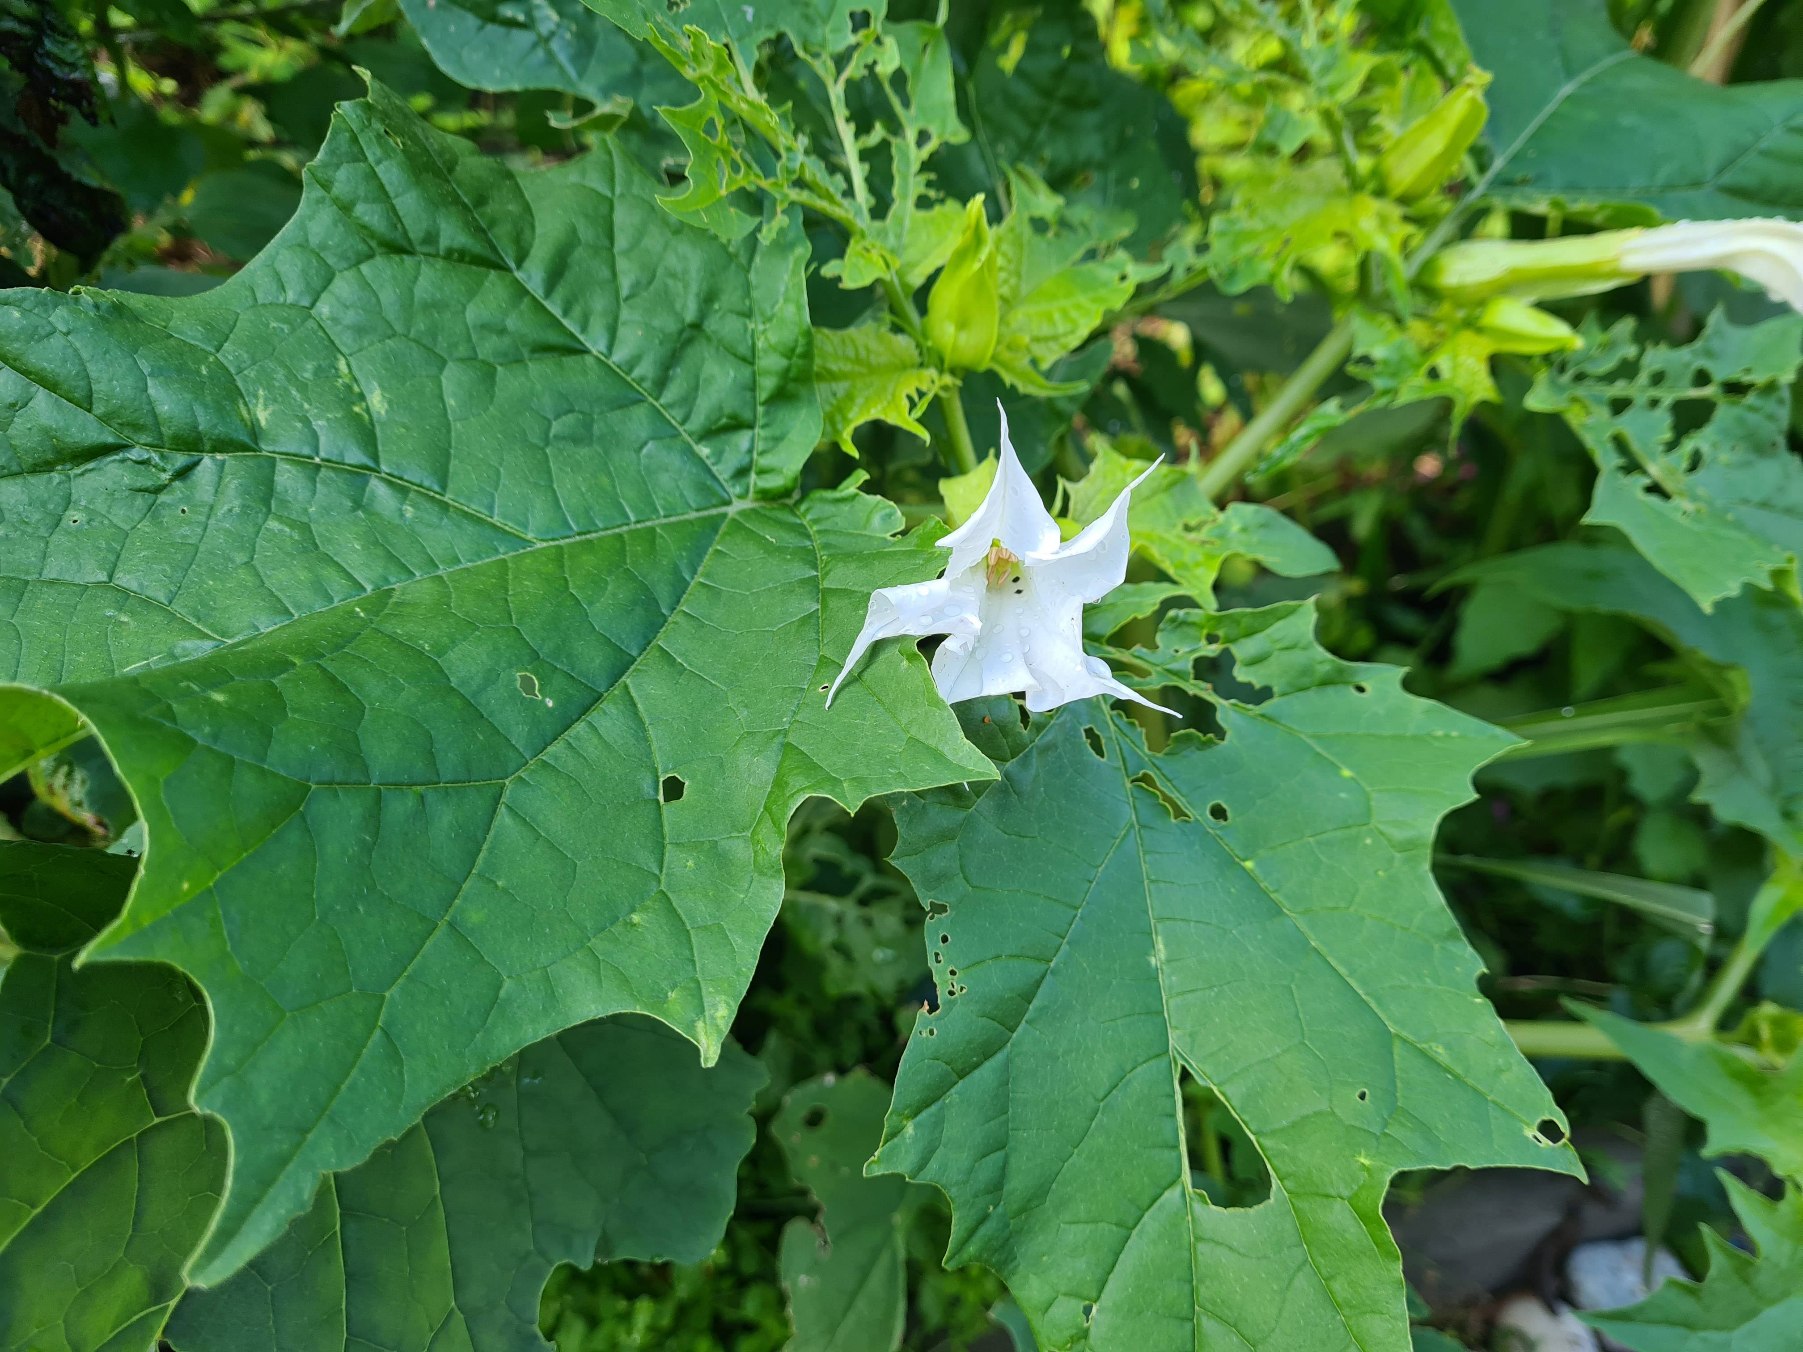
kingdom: Plantae
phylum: Tracheophyta
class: Magnoliopsida
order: Solanales
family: Solanaceae
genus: Datura
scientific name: Datura stramonium
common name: Pigæble
